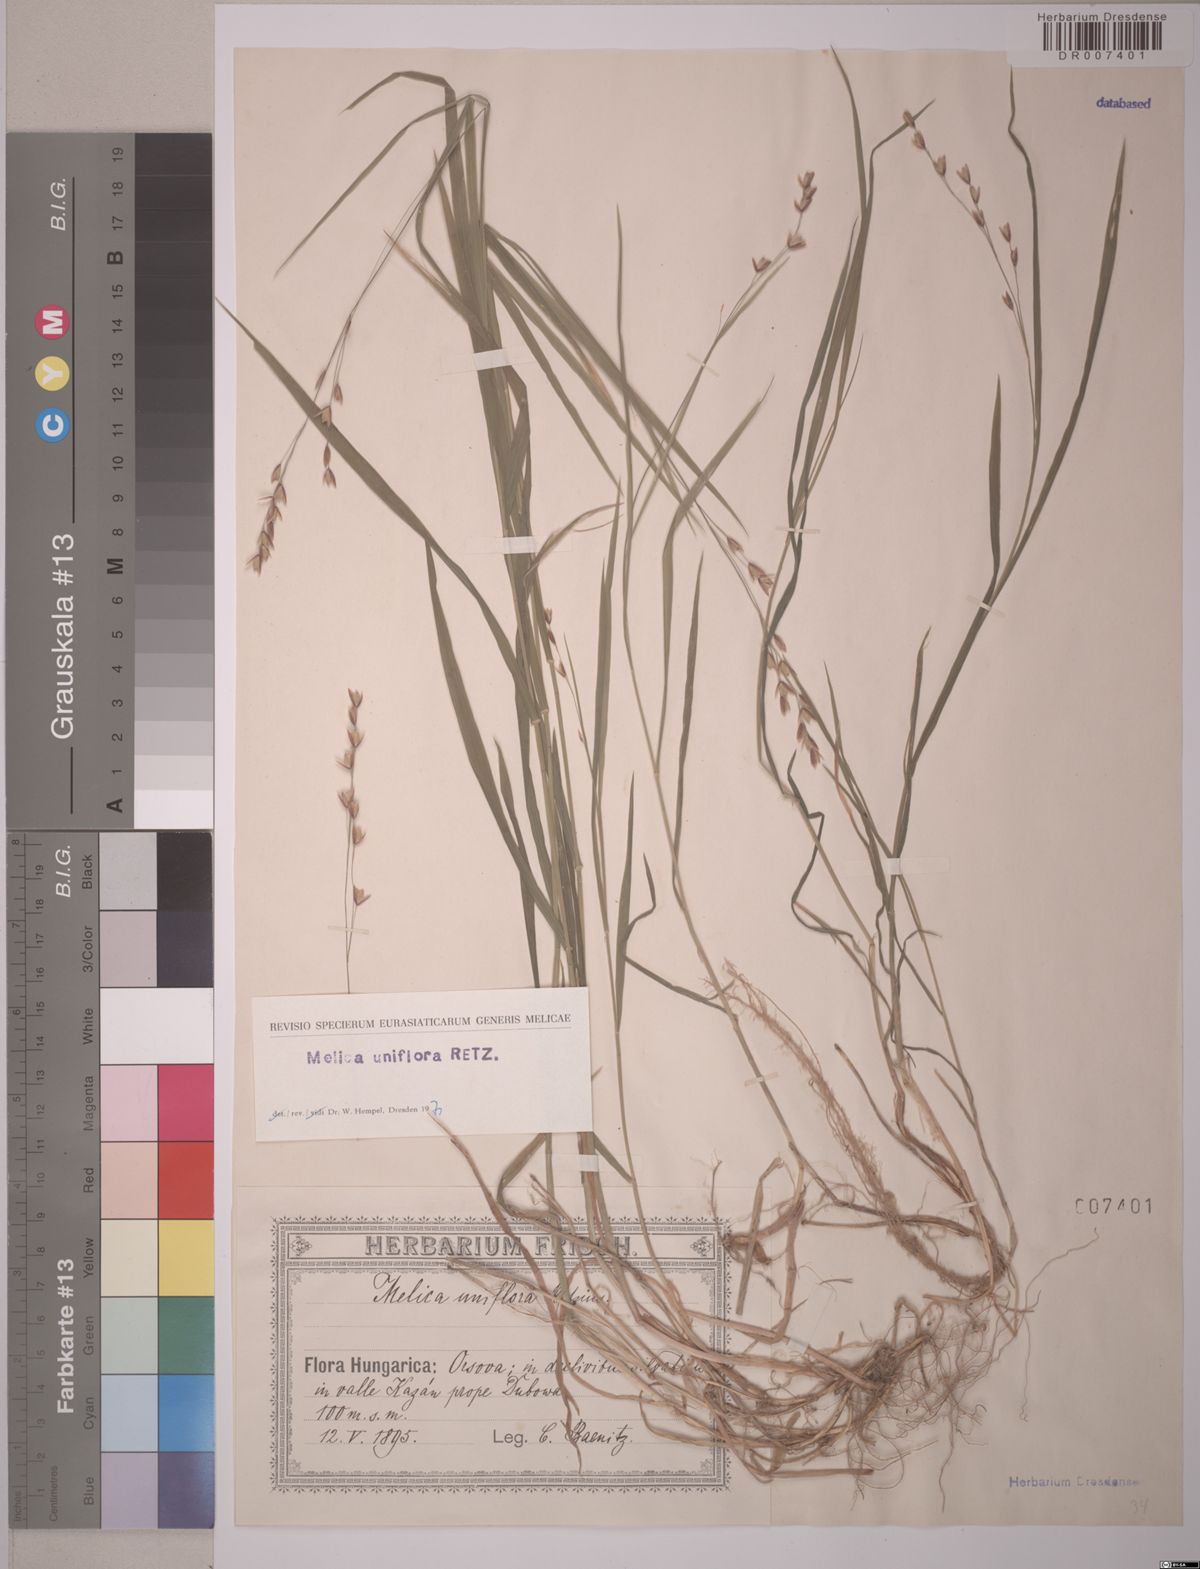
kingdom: Plantae
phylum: Tracheophyta
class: Liliopsida
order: Poales
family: Poaceae
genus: Melica
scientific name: Melica uniflora
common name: Wood melick
